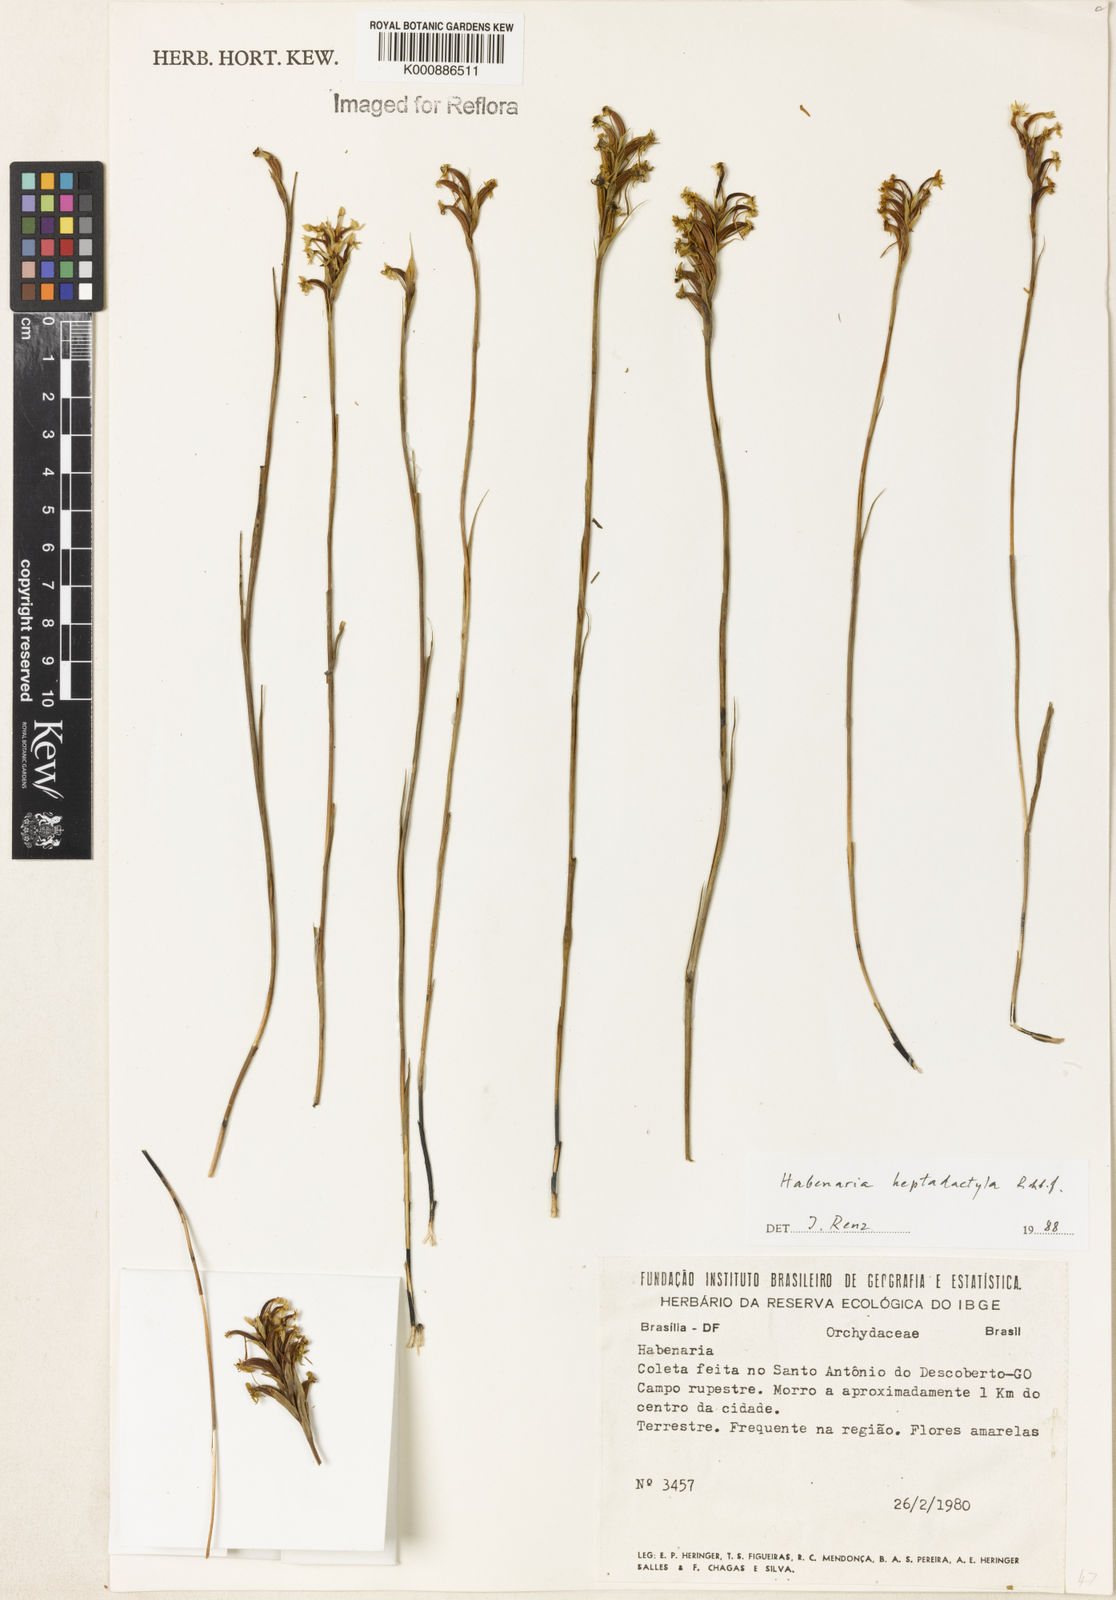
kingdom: Plantae
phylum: Tracheophyta
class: Liliopsida
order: Asparagales
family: Orchidaceae
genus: Habenaria
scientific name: Habenaria heptadactyla
